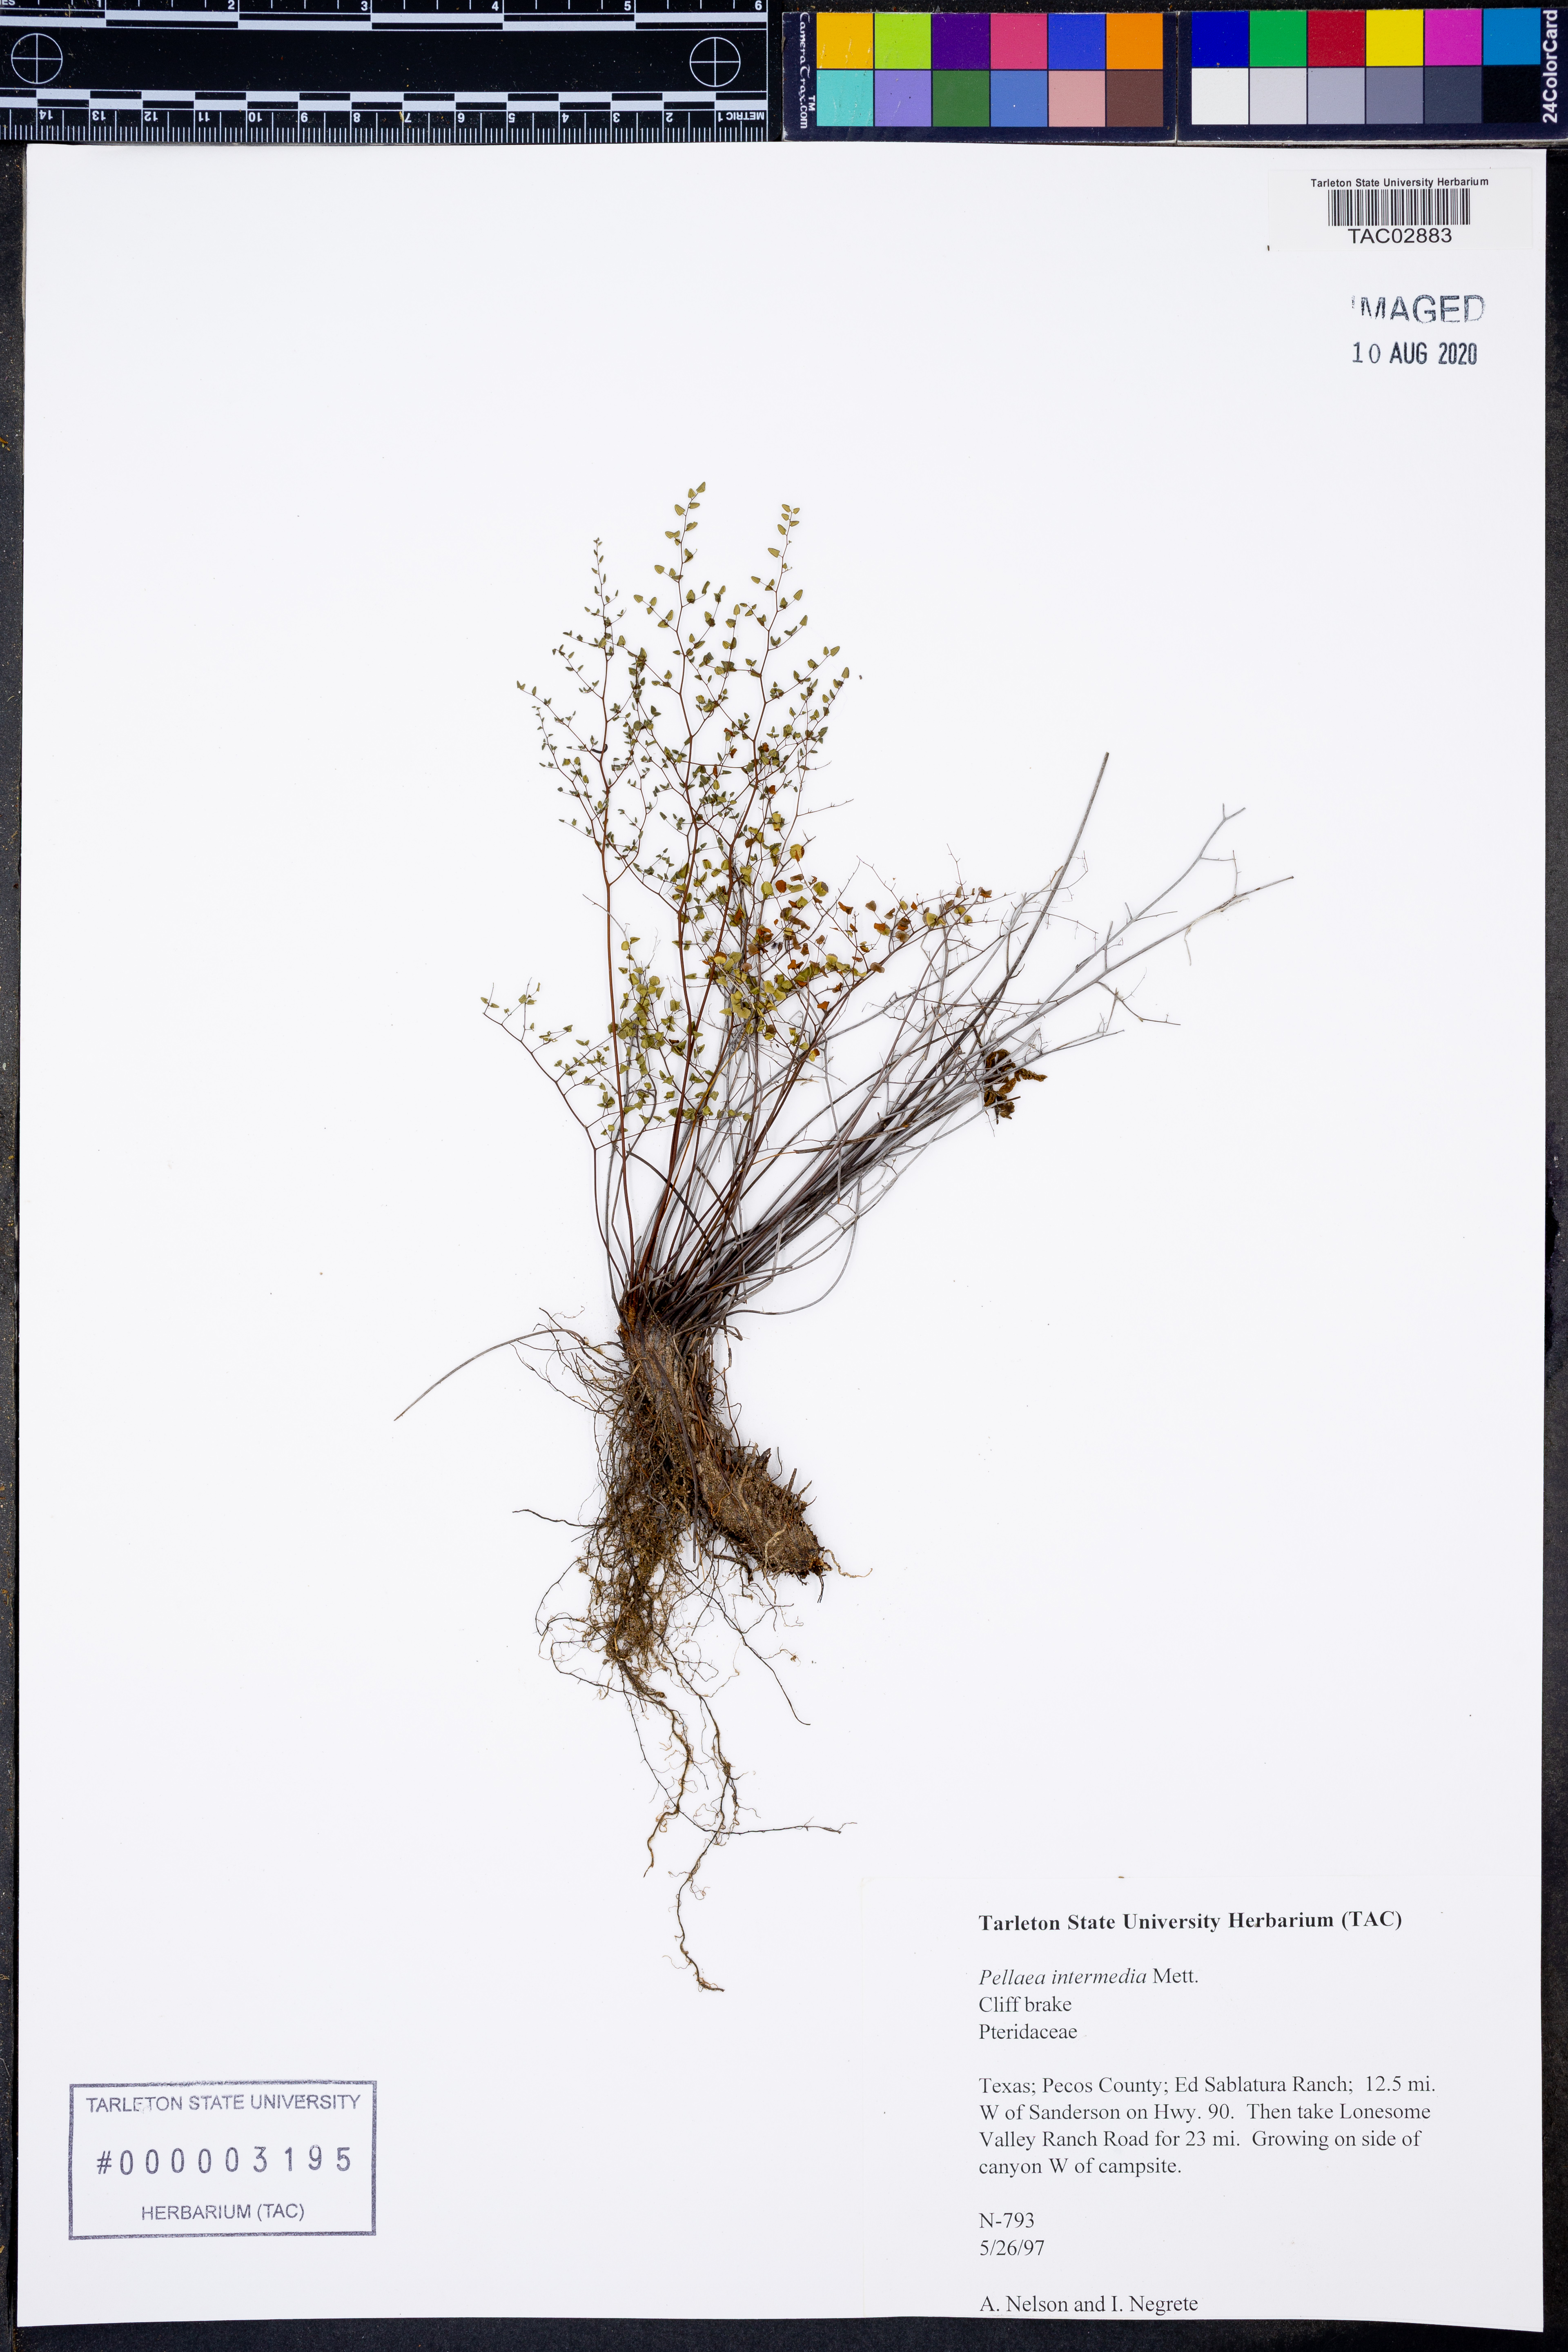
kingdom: Plantae
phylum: Tracheophyta
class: Polypodiopsida
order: Polypodiales
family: Pteridaceae
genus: Pellaea
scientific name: Pellaea intermedia
